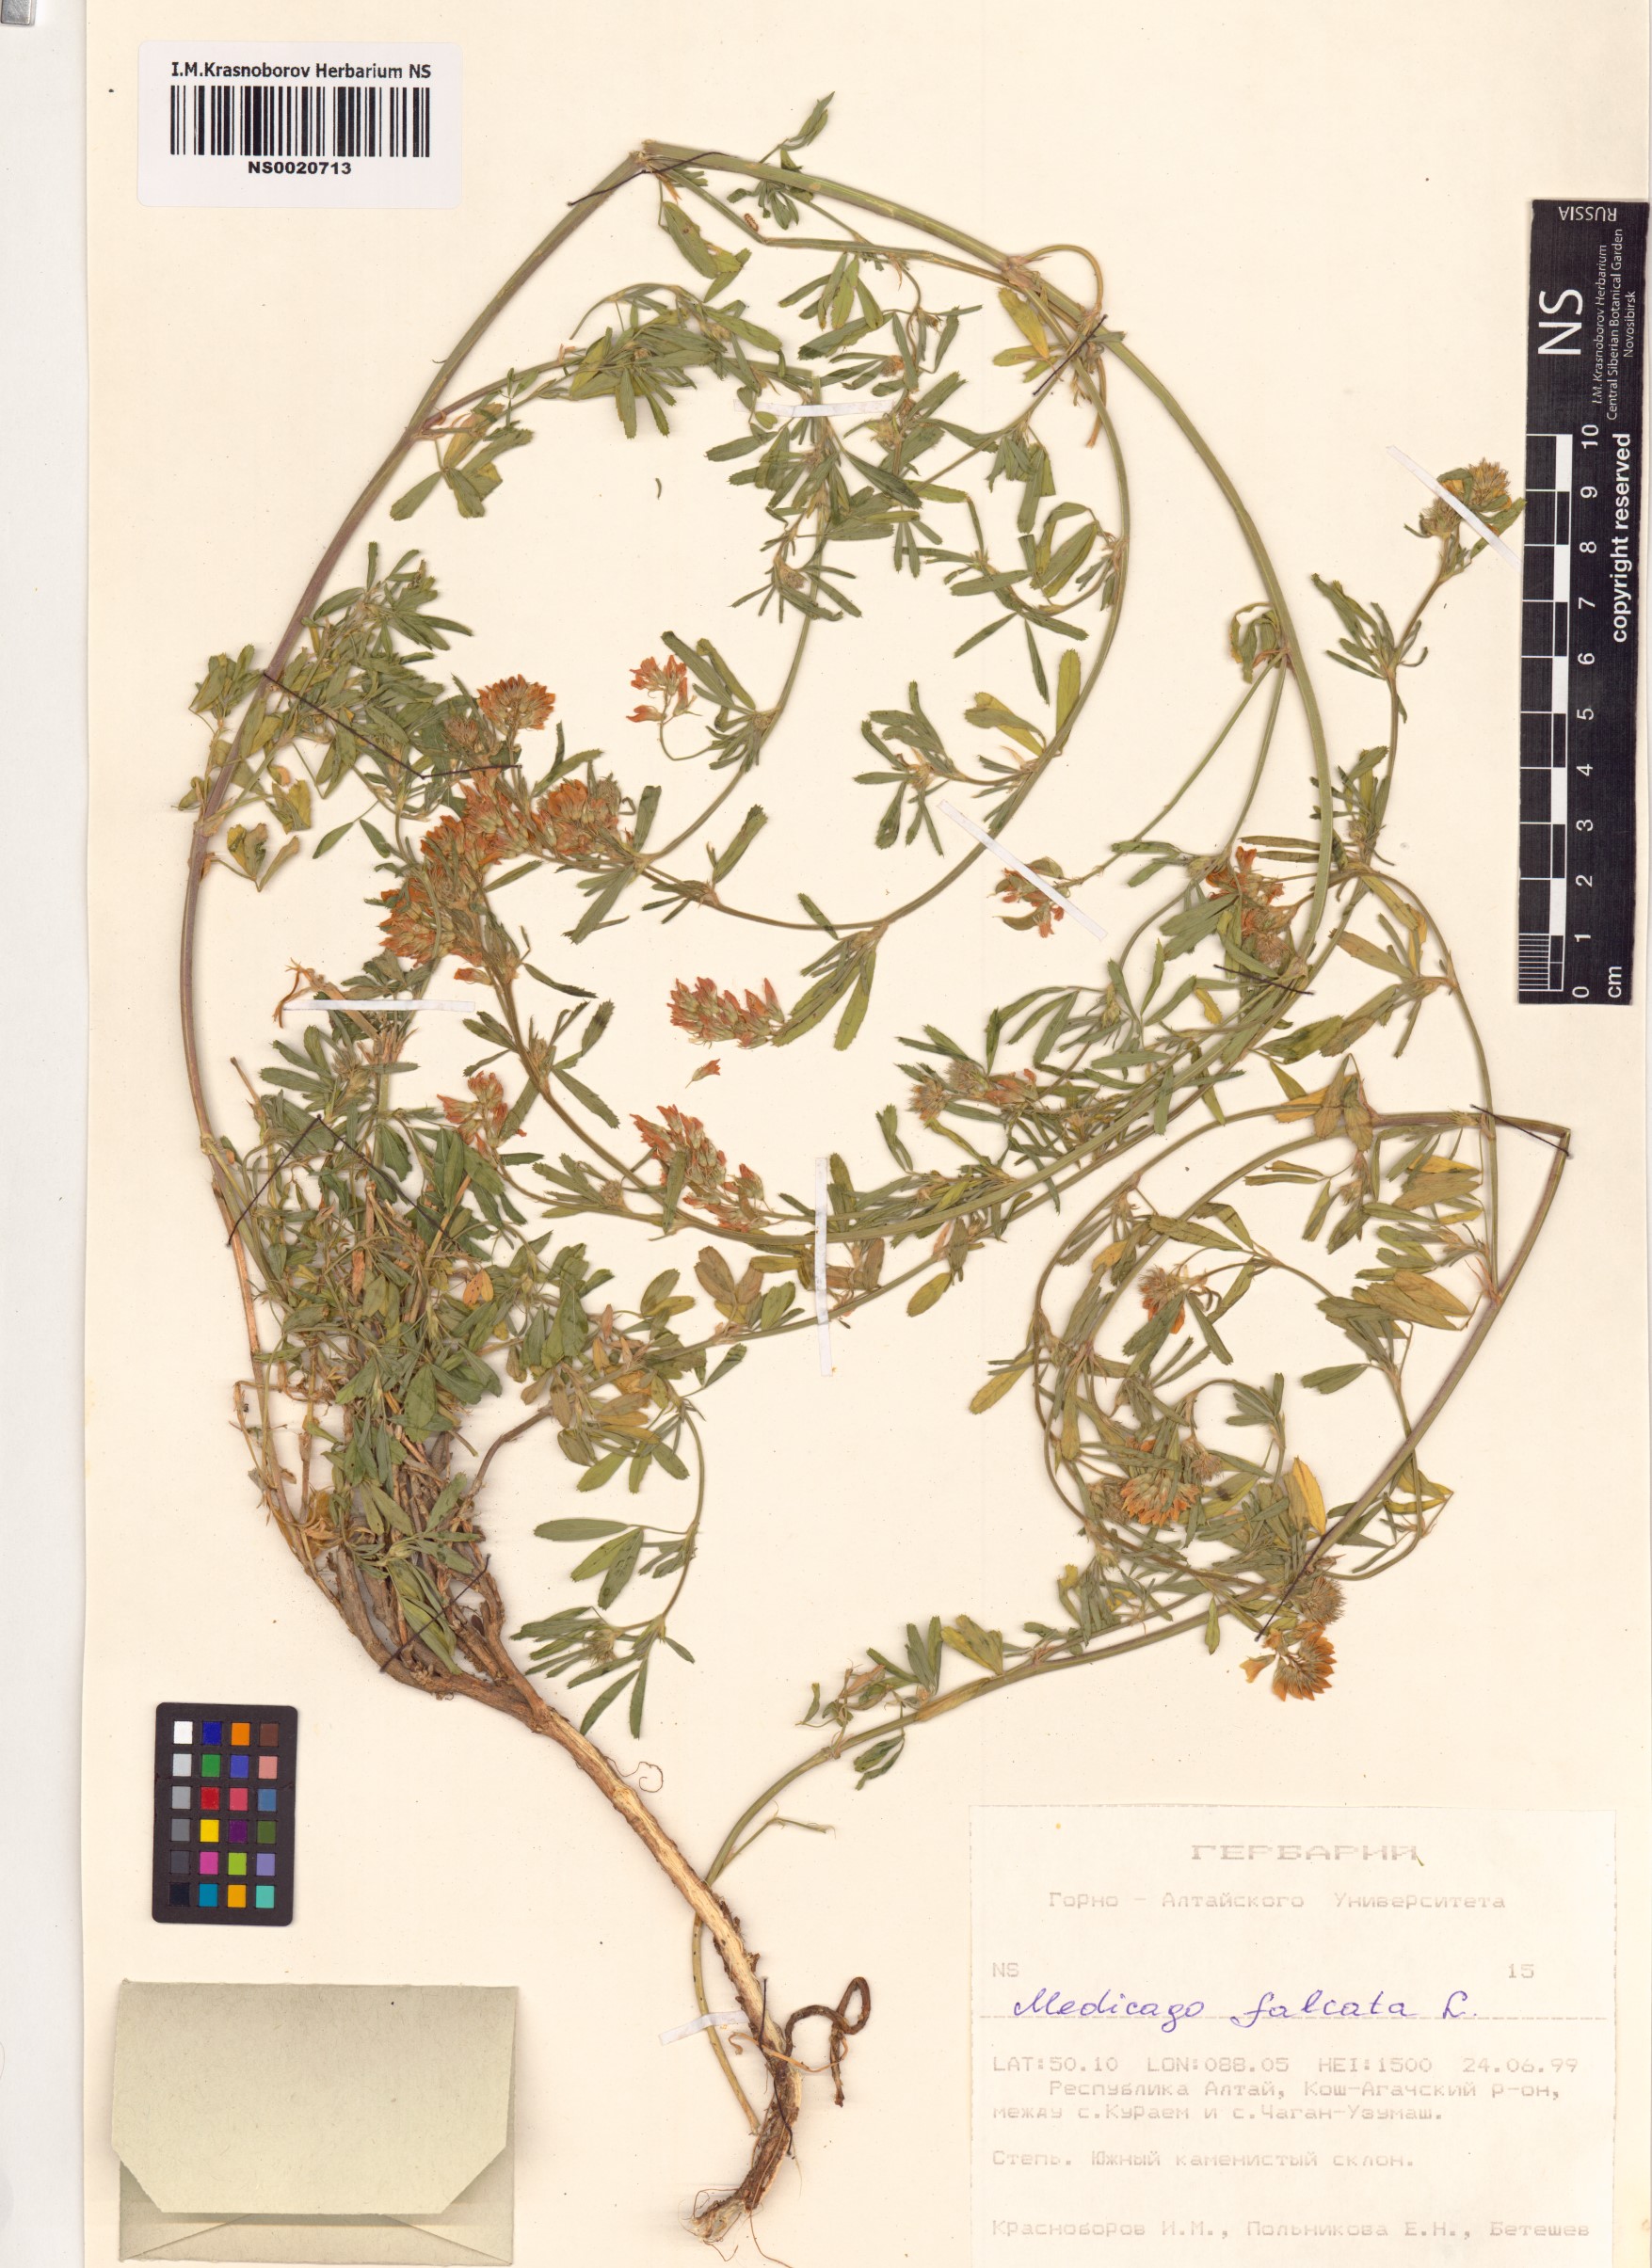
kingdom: Plantae
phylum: Tracheophyta
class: Magnoliopsida
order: Fabales
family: Fabaceae
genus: Medicago
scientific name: Medicago falcata
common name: Sickle medick
